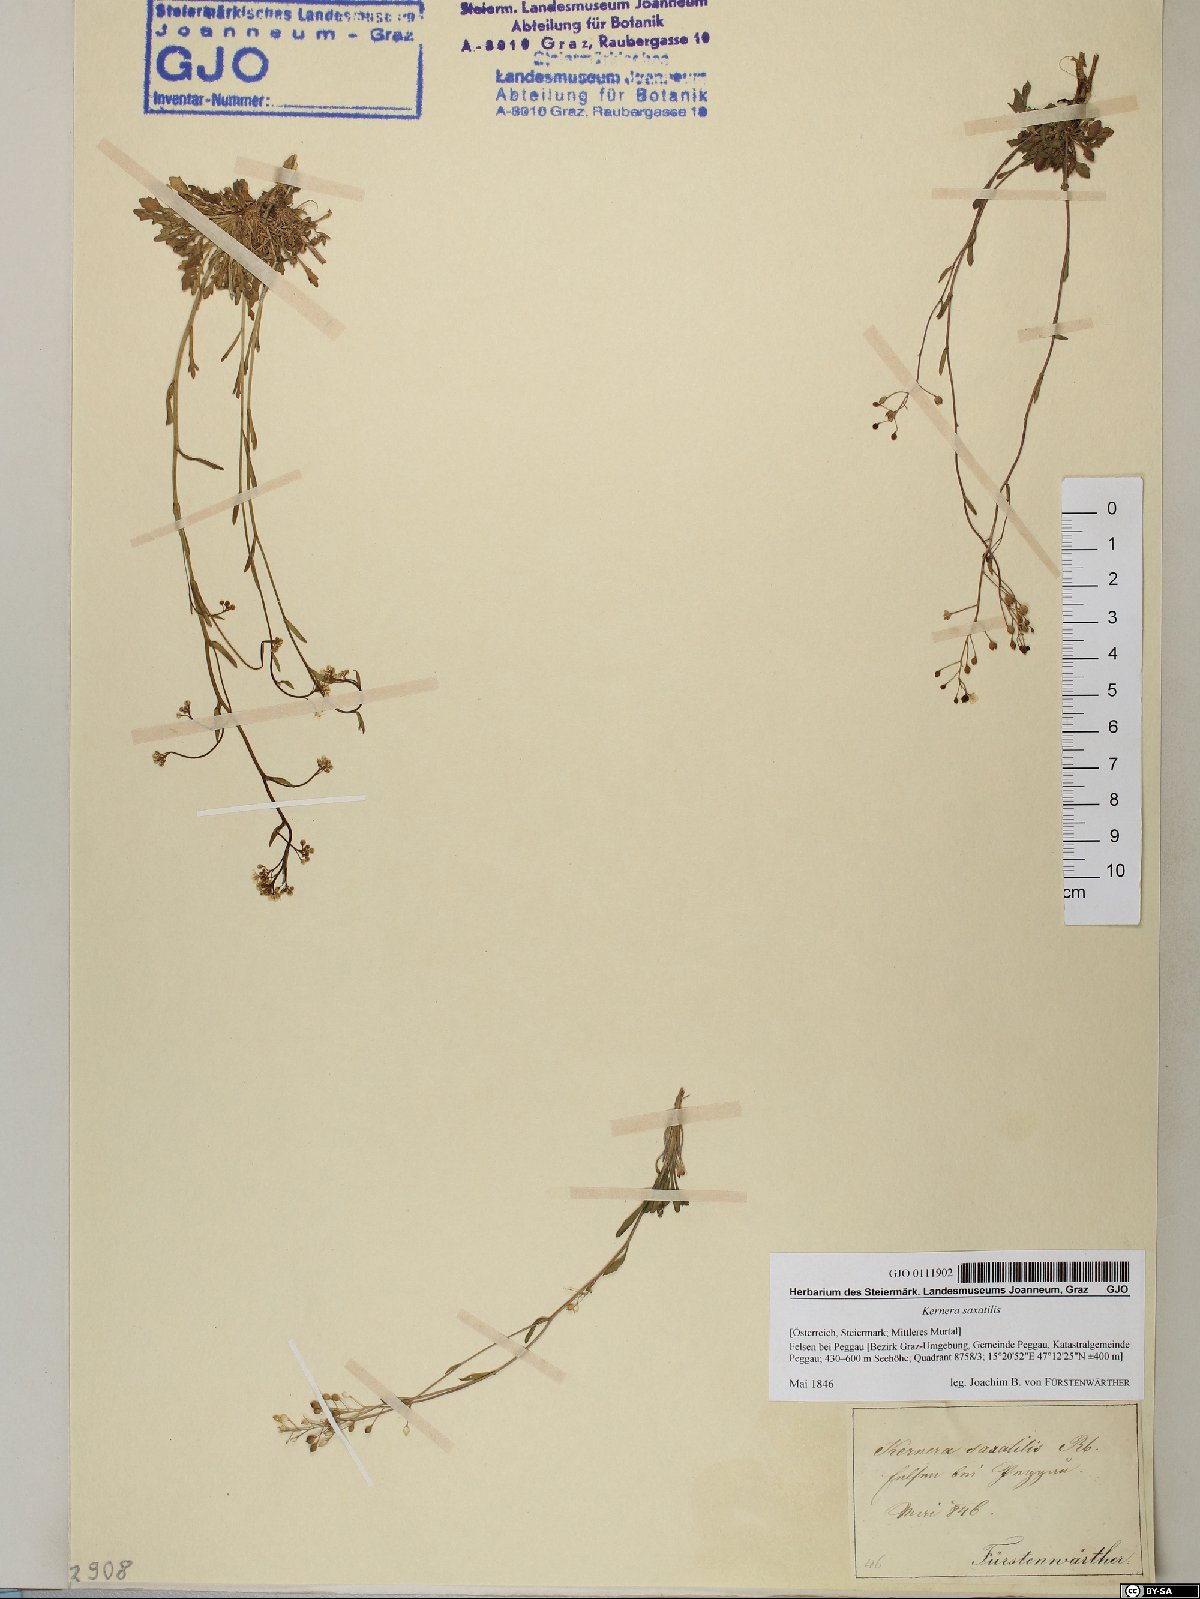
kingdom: Plantae
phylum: Tracheophyta
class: Magnoliopsida
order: Brassicales
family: Brassicaceae
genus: Kernera
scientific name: Kernera saxatilis
